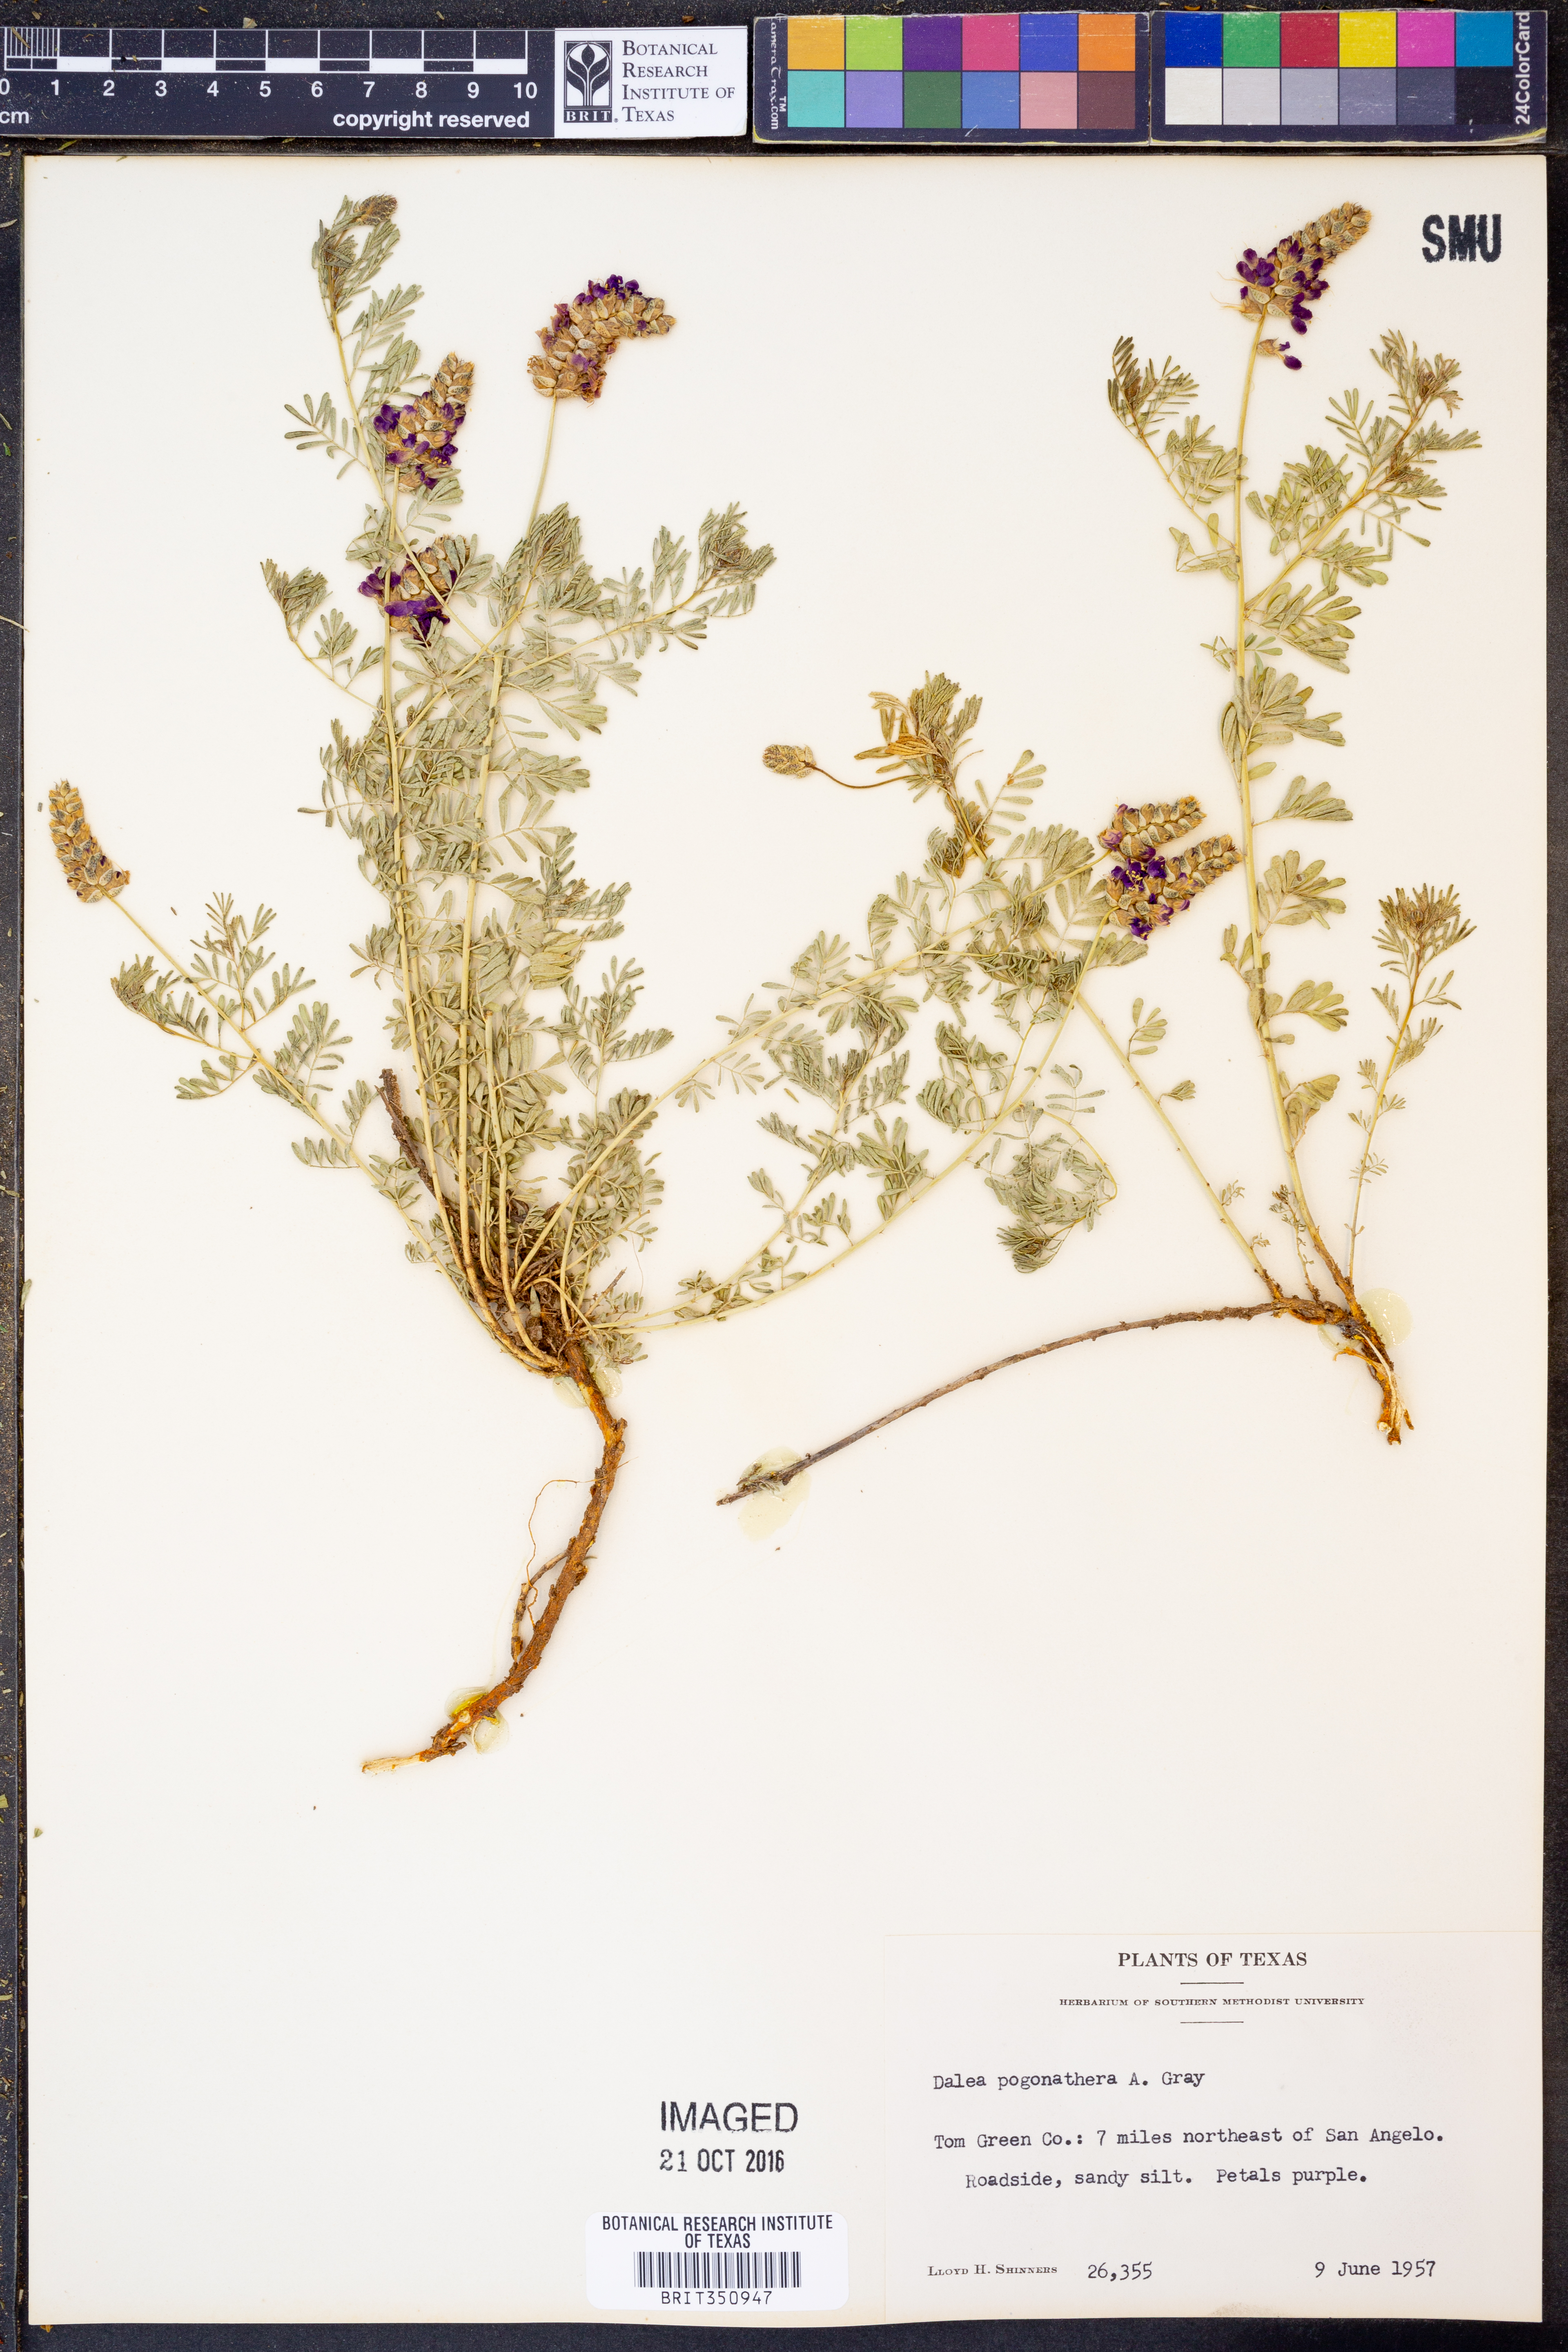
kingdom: Plantae
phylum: Tracheophyta
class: Magnoliopsida
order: Fabales
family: Fabaceae
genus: Dalea
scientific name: Dalea pogonathera
